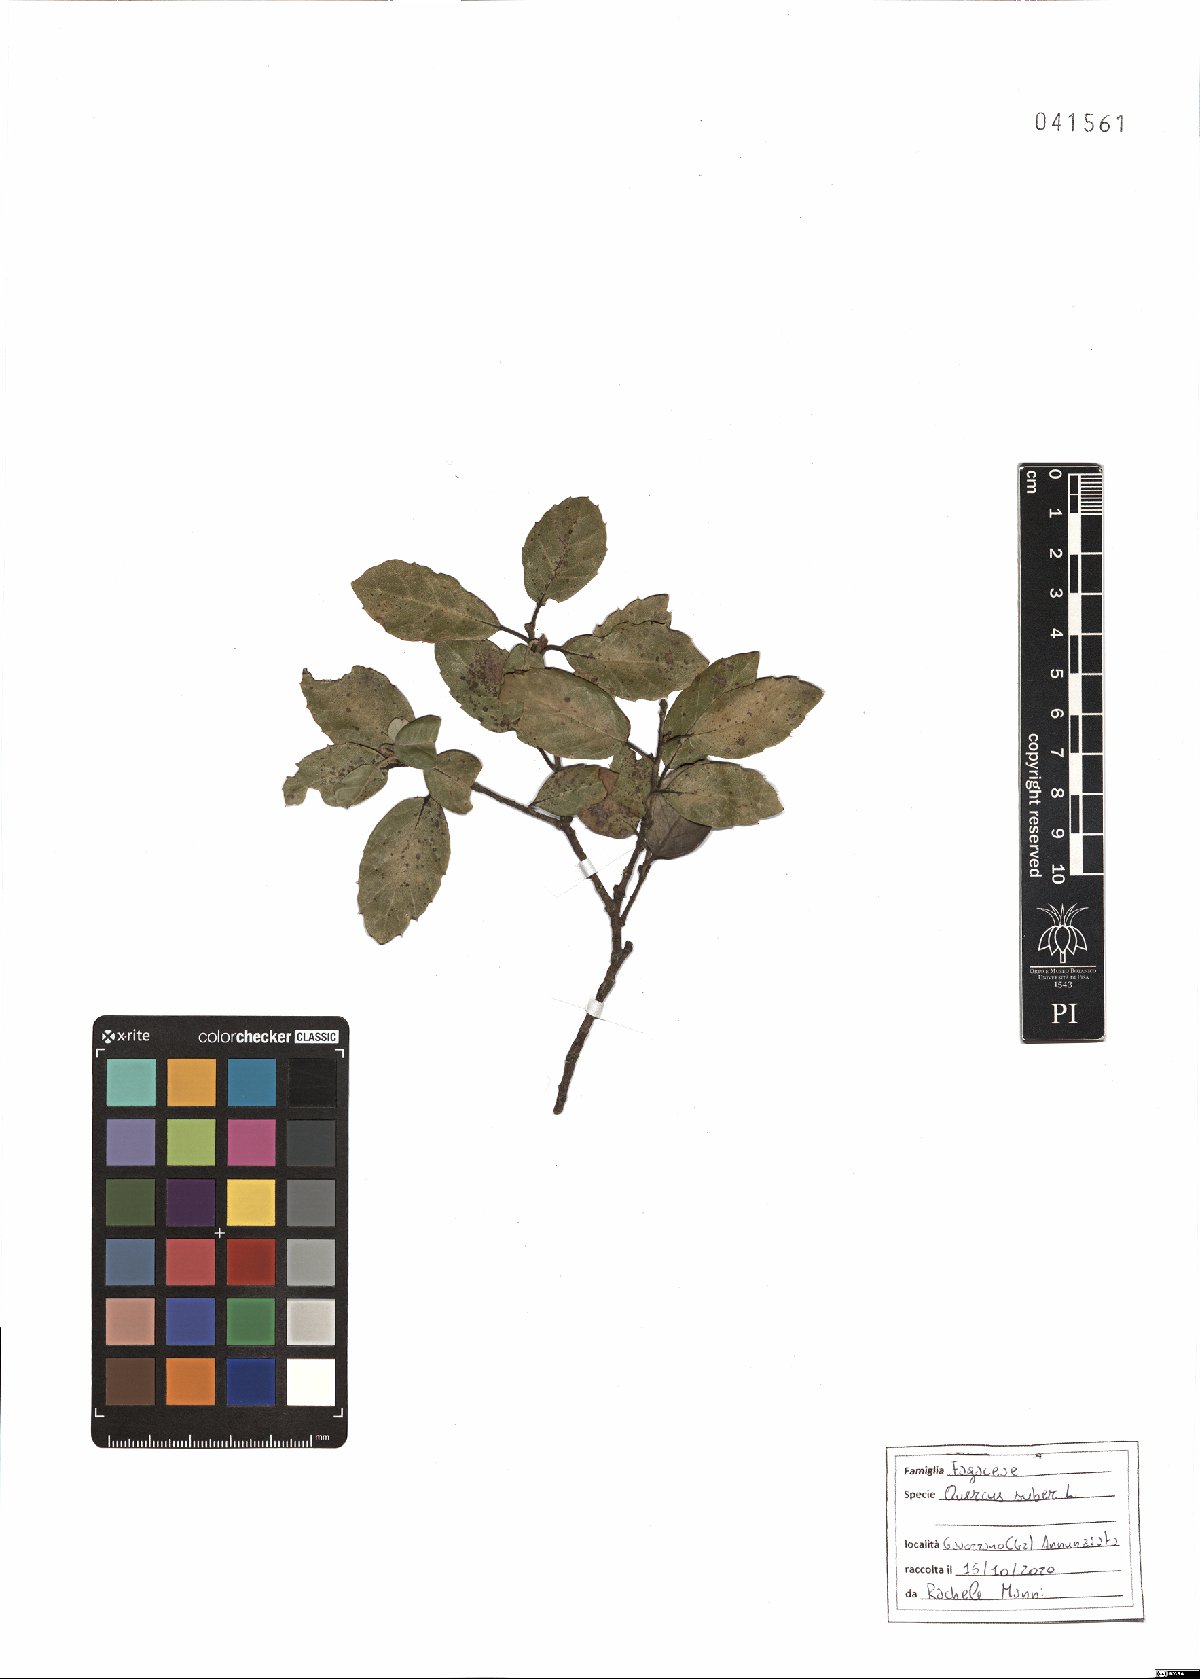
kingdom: Plantae
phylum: Tracheophyta
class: Magnoliopsida
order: Fagales
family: Fagaceae
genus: Quercus
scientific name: Quercus suber
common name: Cork oak
